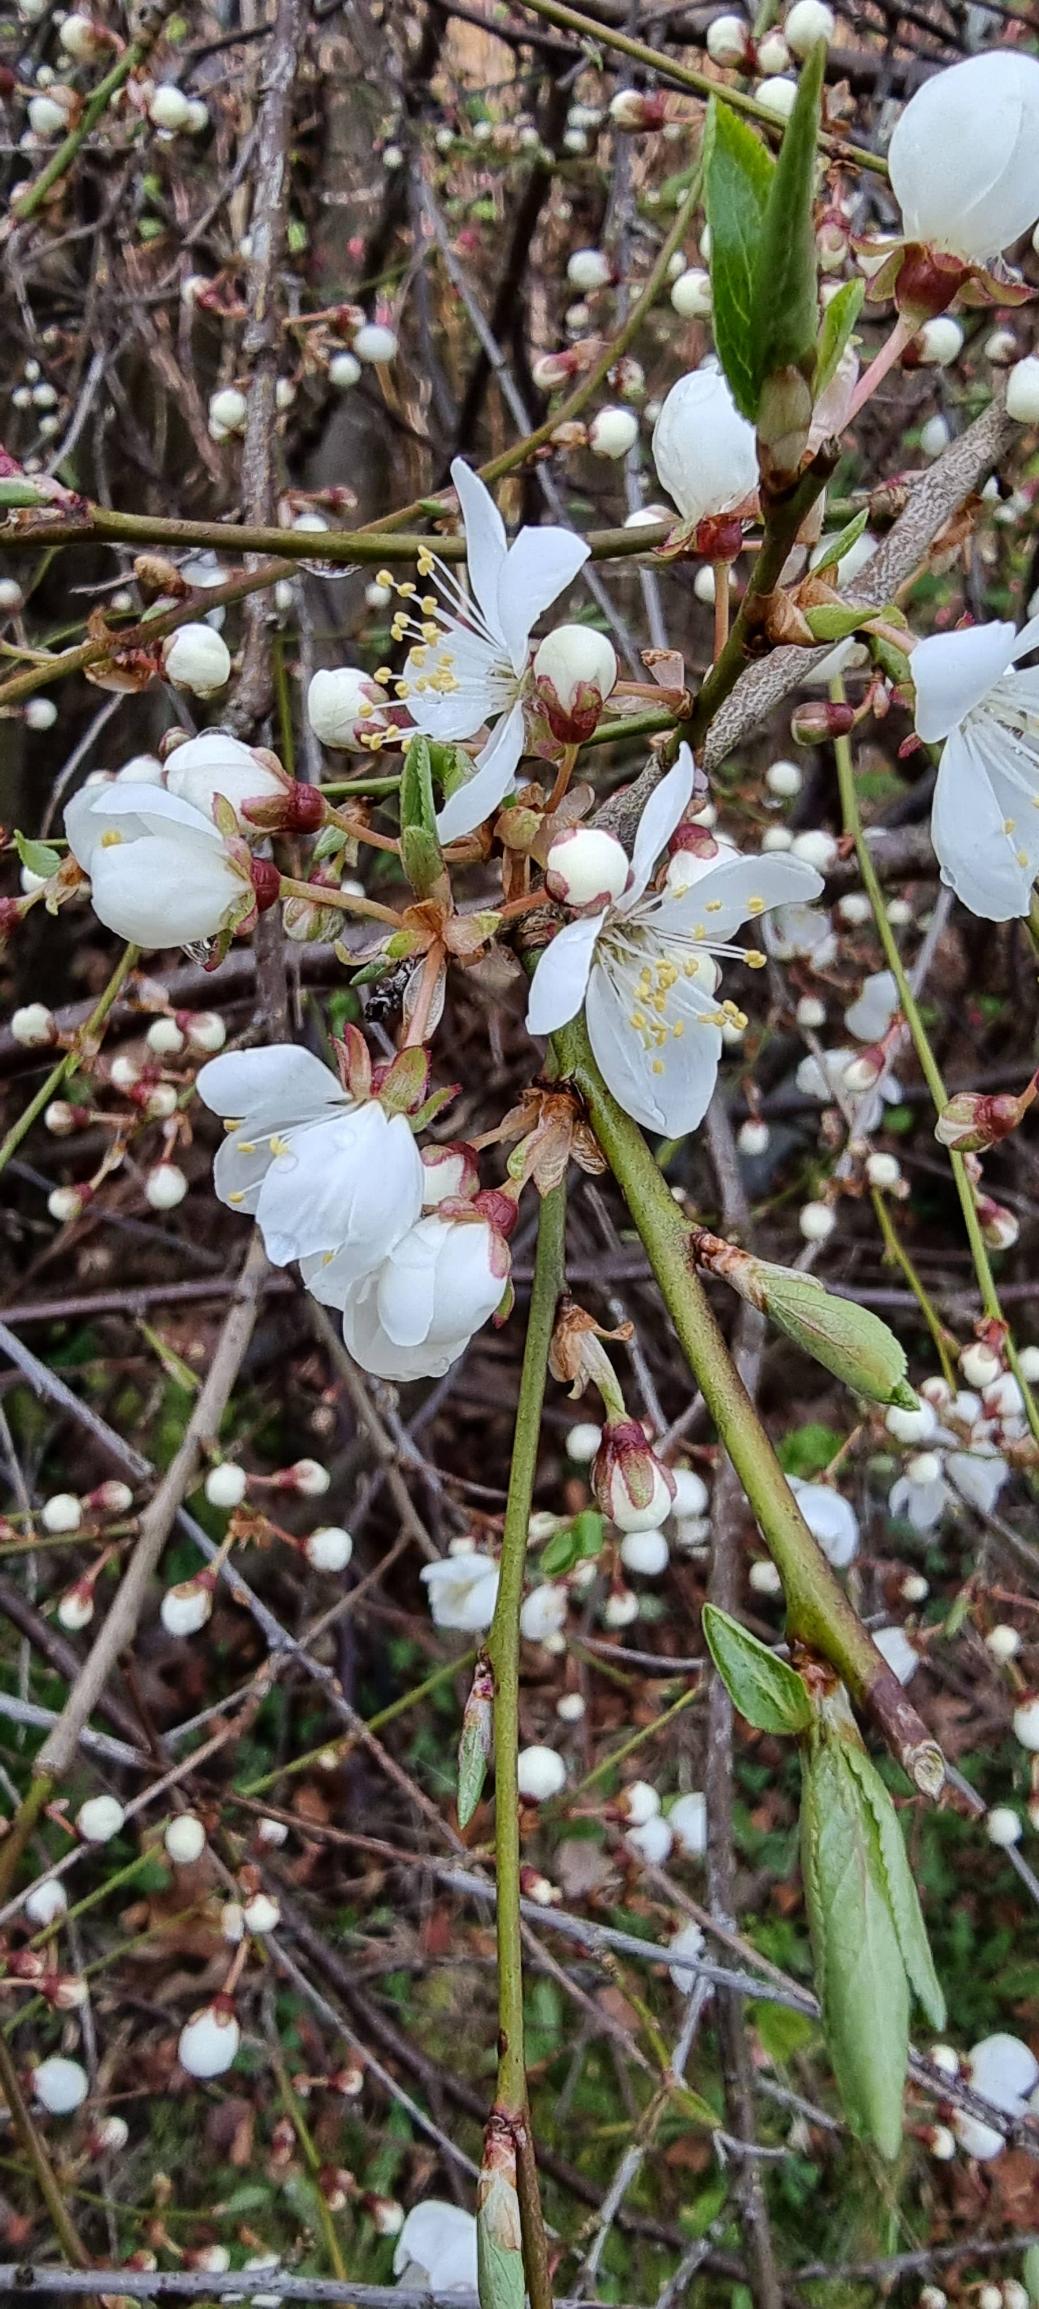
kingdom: Plantae
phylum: Tracheophyta
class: Magnoliopsida
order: Rosales
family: Rosaceae
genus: Prunus
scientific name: Prunus cerasifera
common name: Mirabel
